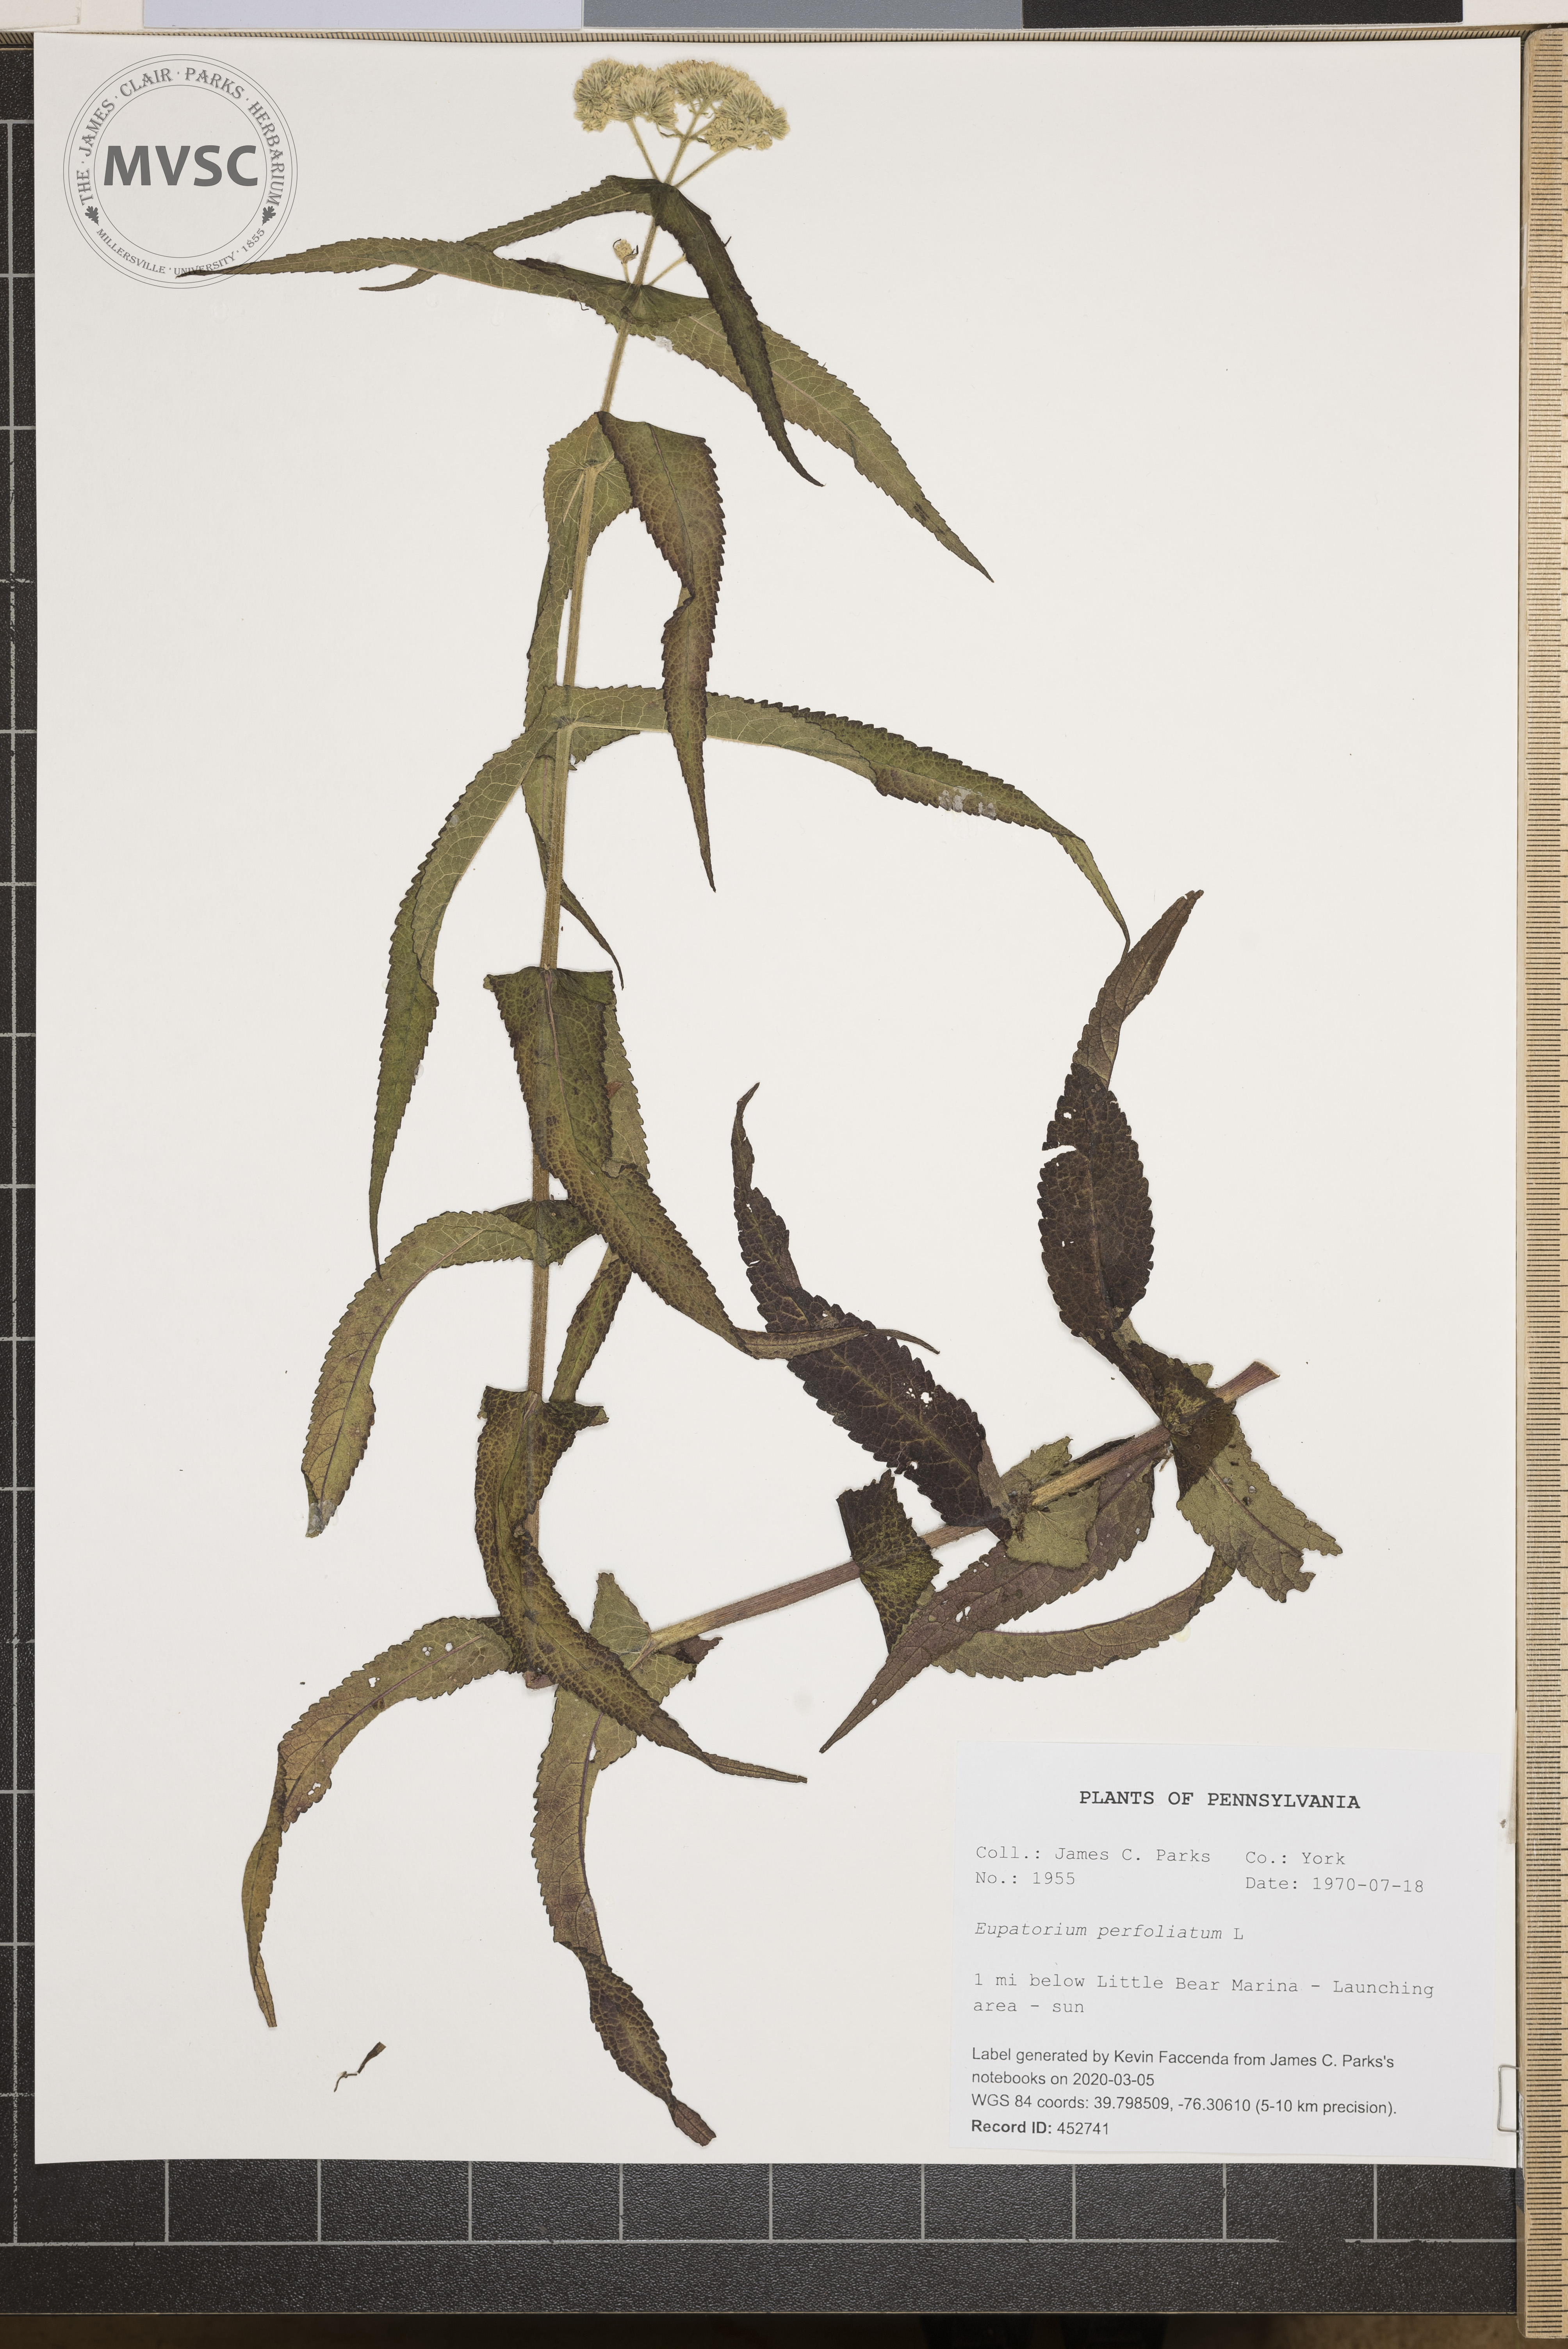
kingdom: Plantae
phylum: Tracheophyta
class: Magnoliopsida
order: Asterales
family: Asteraceae
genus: Eupatorium
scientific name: Eupatorium perfoliatum
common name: Boneset
